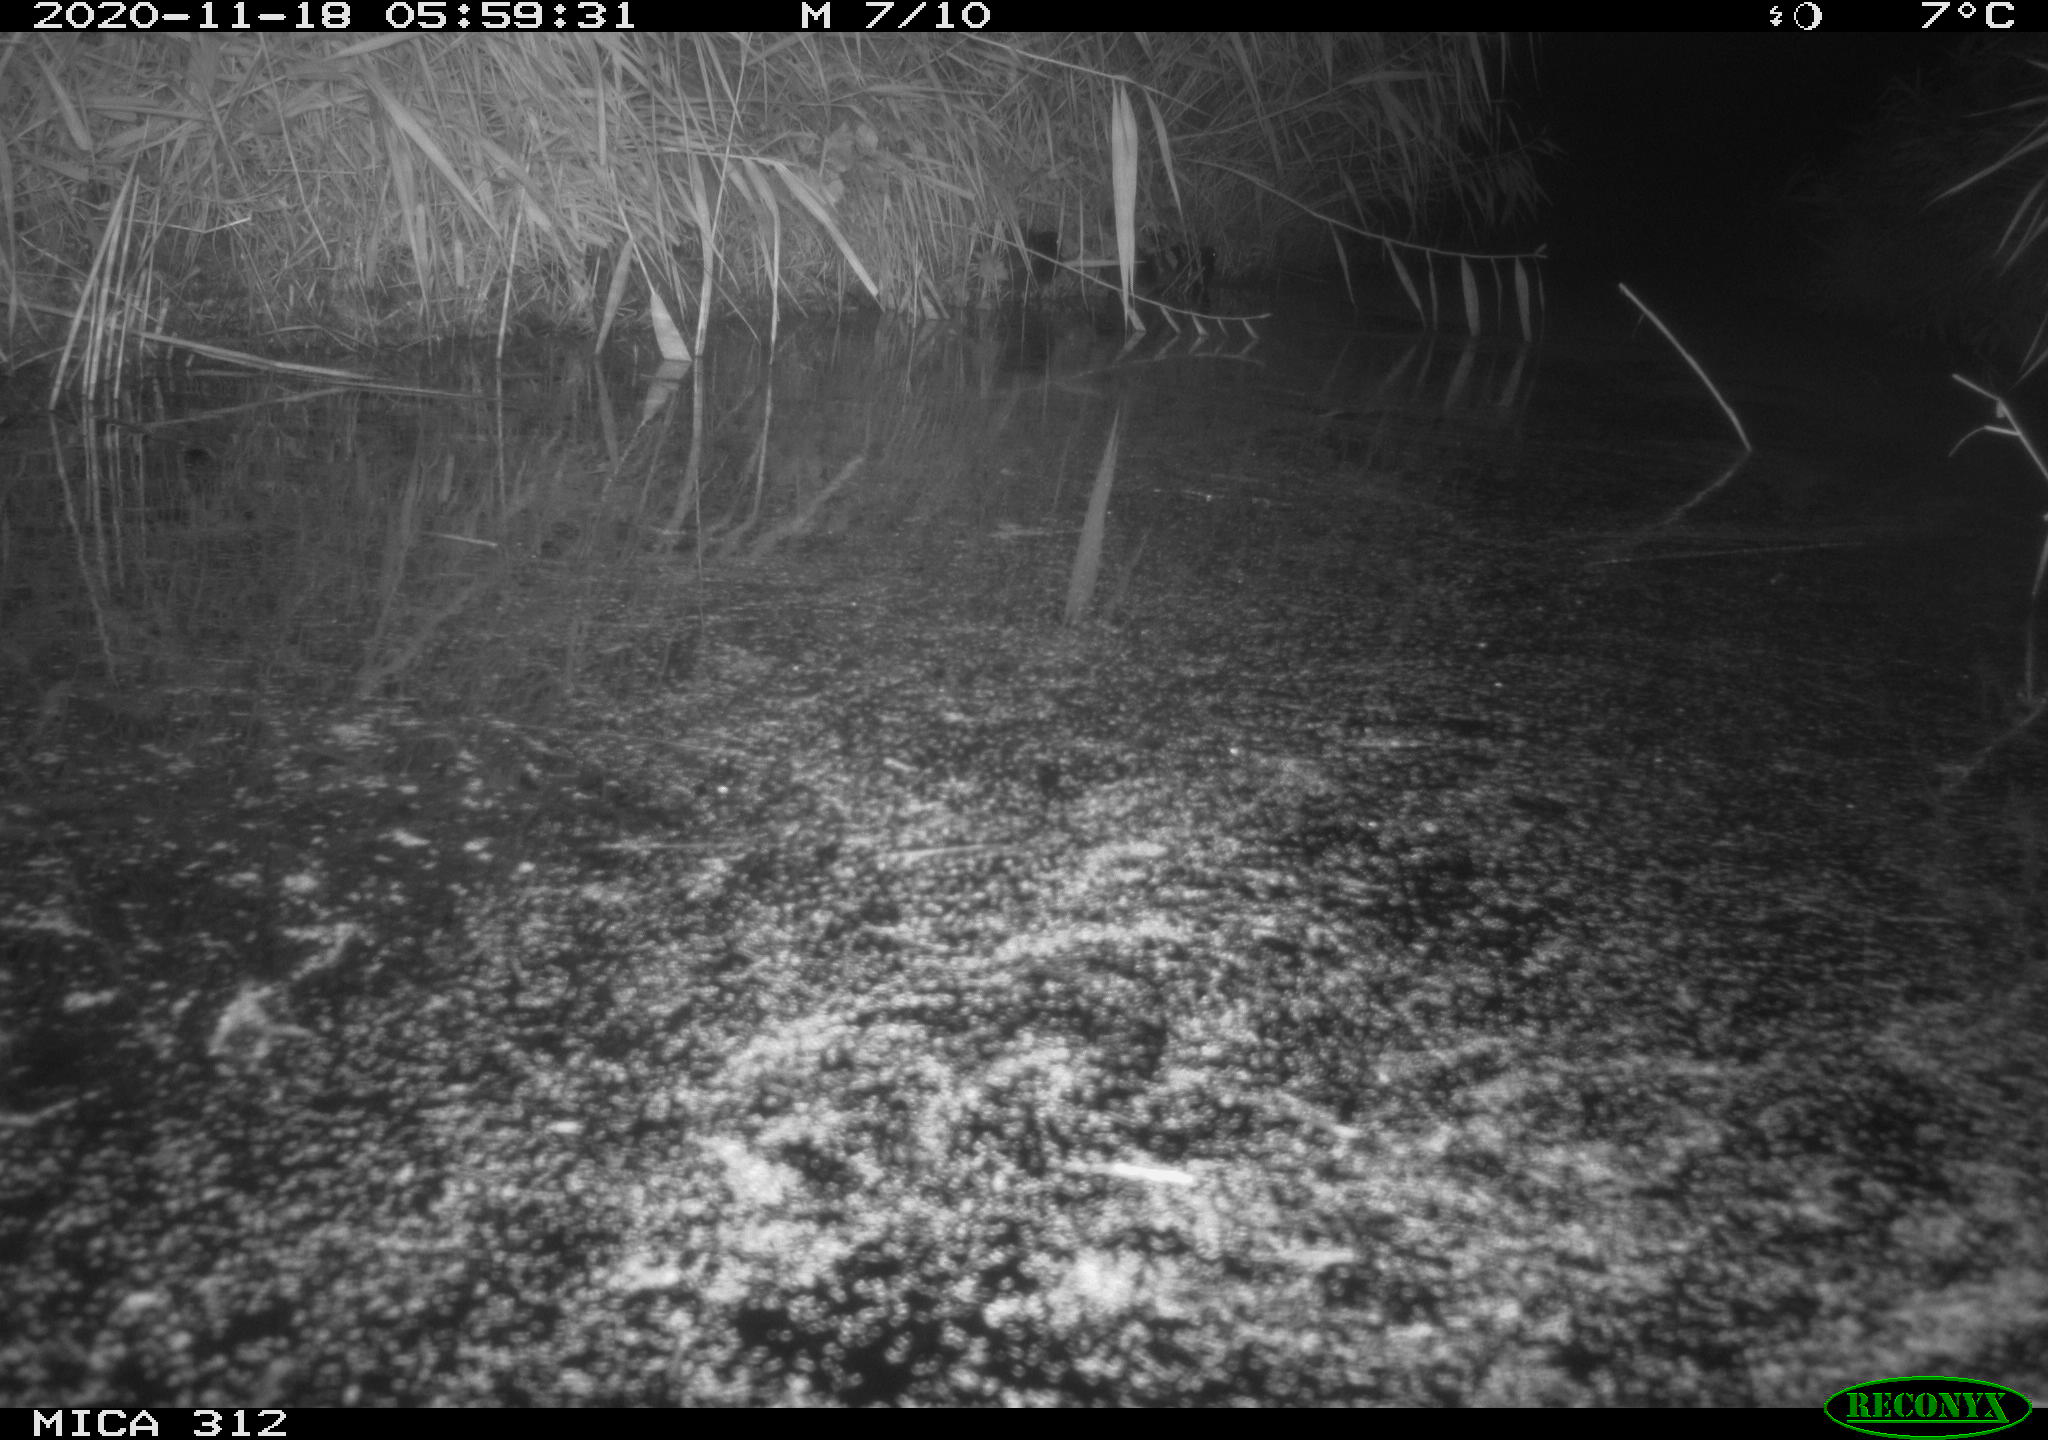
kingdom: Animalia
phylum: Chordata
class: Mammalia
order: Rodentia
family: Muridae
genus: Rattus
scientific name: Rattus norvegicus
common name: Brown rat
